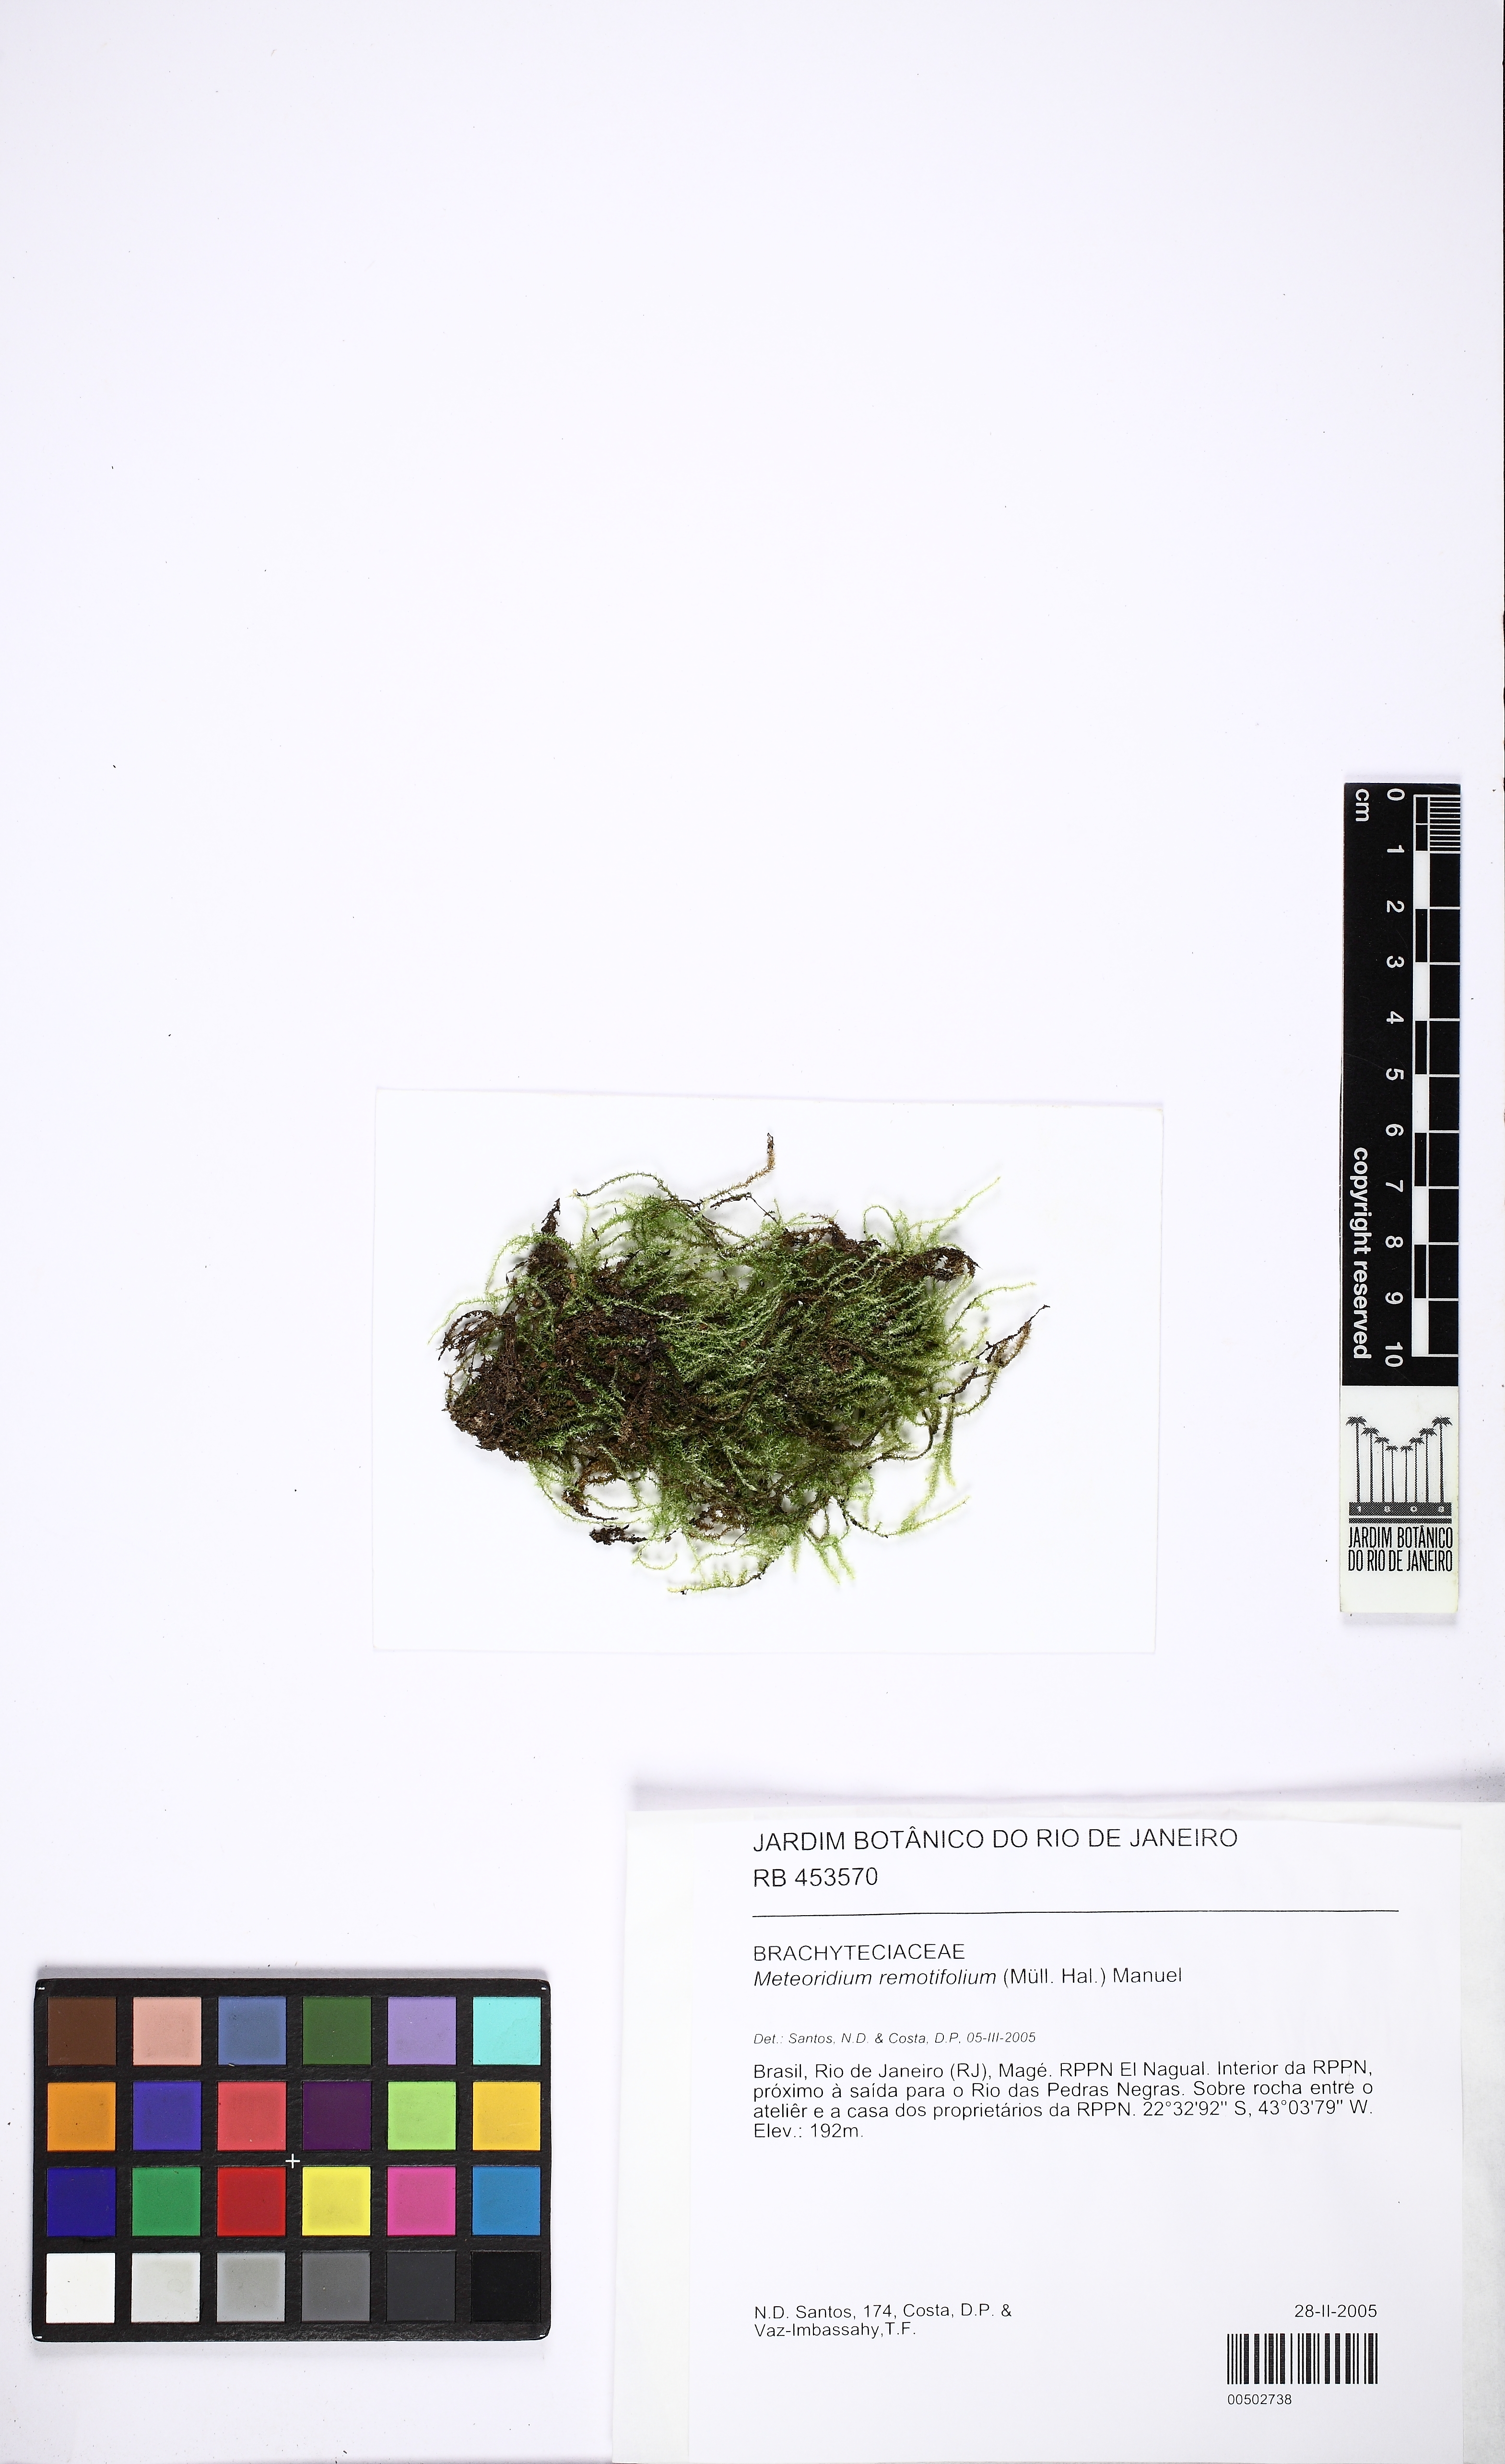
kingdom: Plantae
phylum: Bryophyta
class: Bryopsida
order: Hypnales
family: Brachytheciaceae
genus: Meteoridium
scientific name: Meteoridium remotifolium
